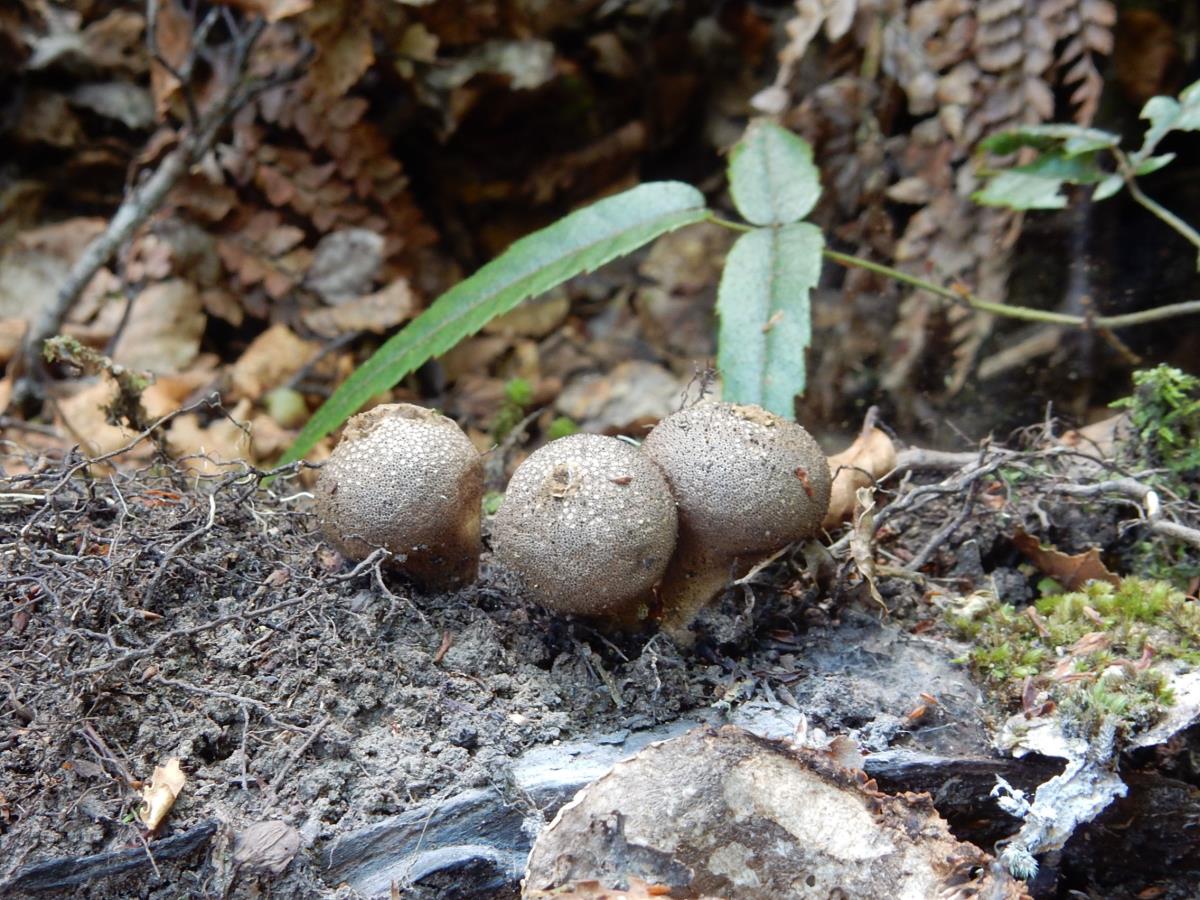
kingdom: Fungi
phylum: Basidiomycota
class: Agaricomycetes
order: Agaricales
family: Lycoperdaceae
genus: Apioperdon
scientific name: Apioperdon pyriforme
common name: Pear-shaped puffball
